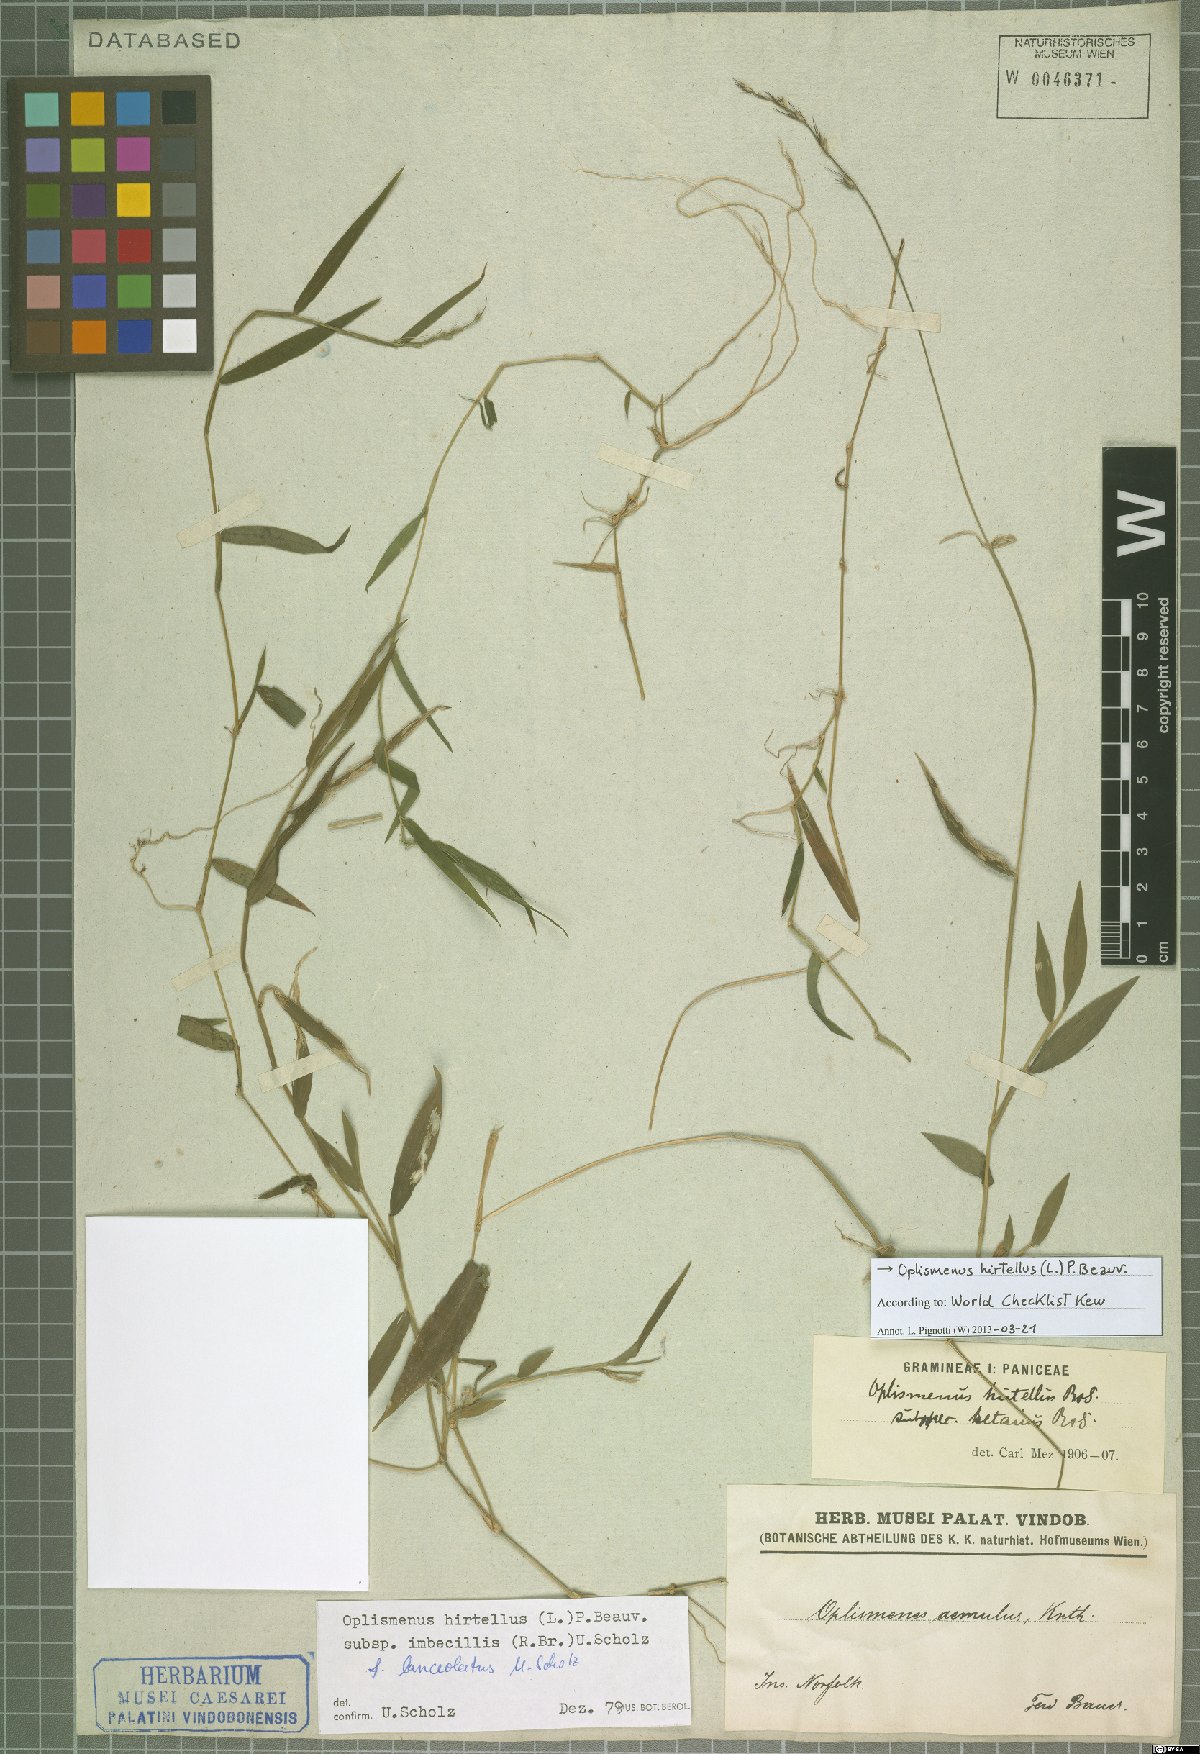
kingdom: Plantae
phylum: Tracheophyta
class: Liliopsida
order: Poales
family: Poaceae
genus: Oplismenus
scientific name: Oplismenus hirtellus
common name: Basketgrass
